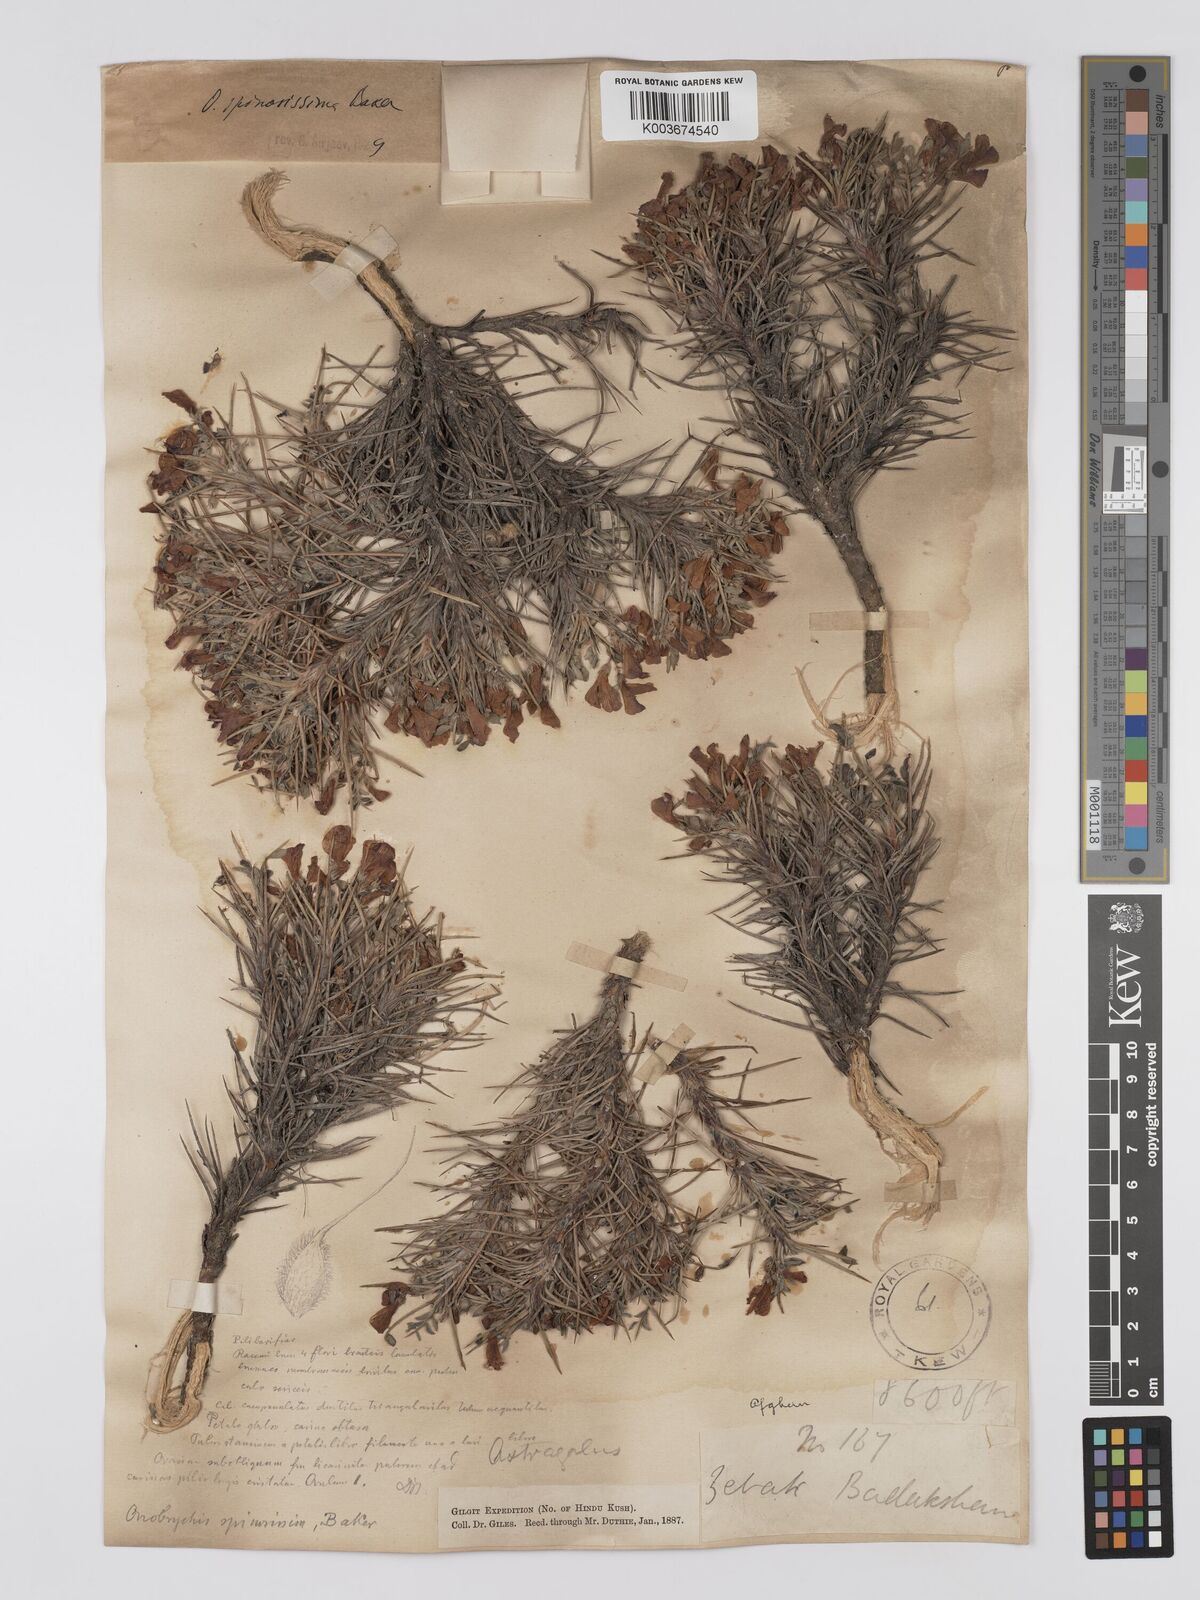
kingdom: Plantae
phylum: Tracheophyta
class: Magnoliopsida
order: Fabales
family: Fabaceae
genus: Onobrychis
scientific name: Onobrychis spinosissima
